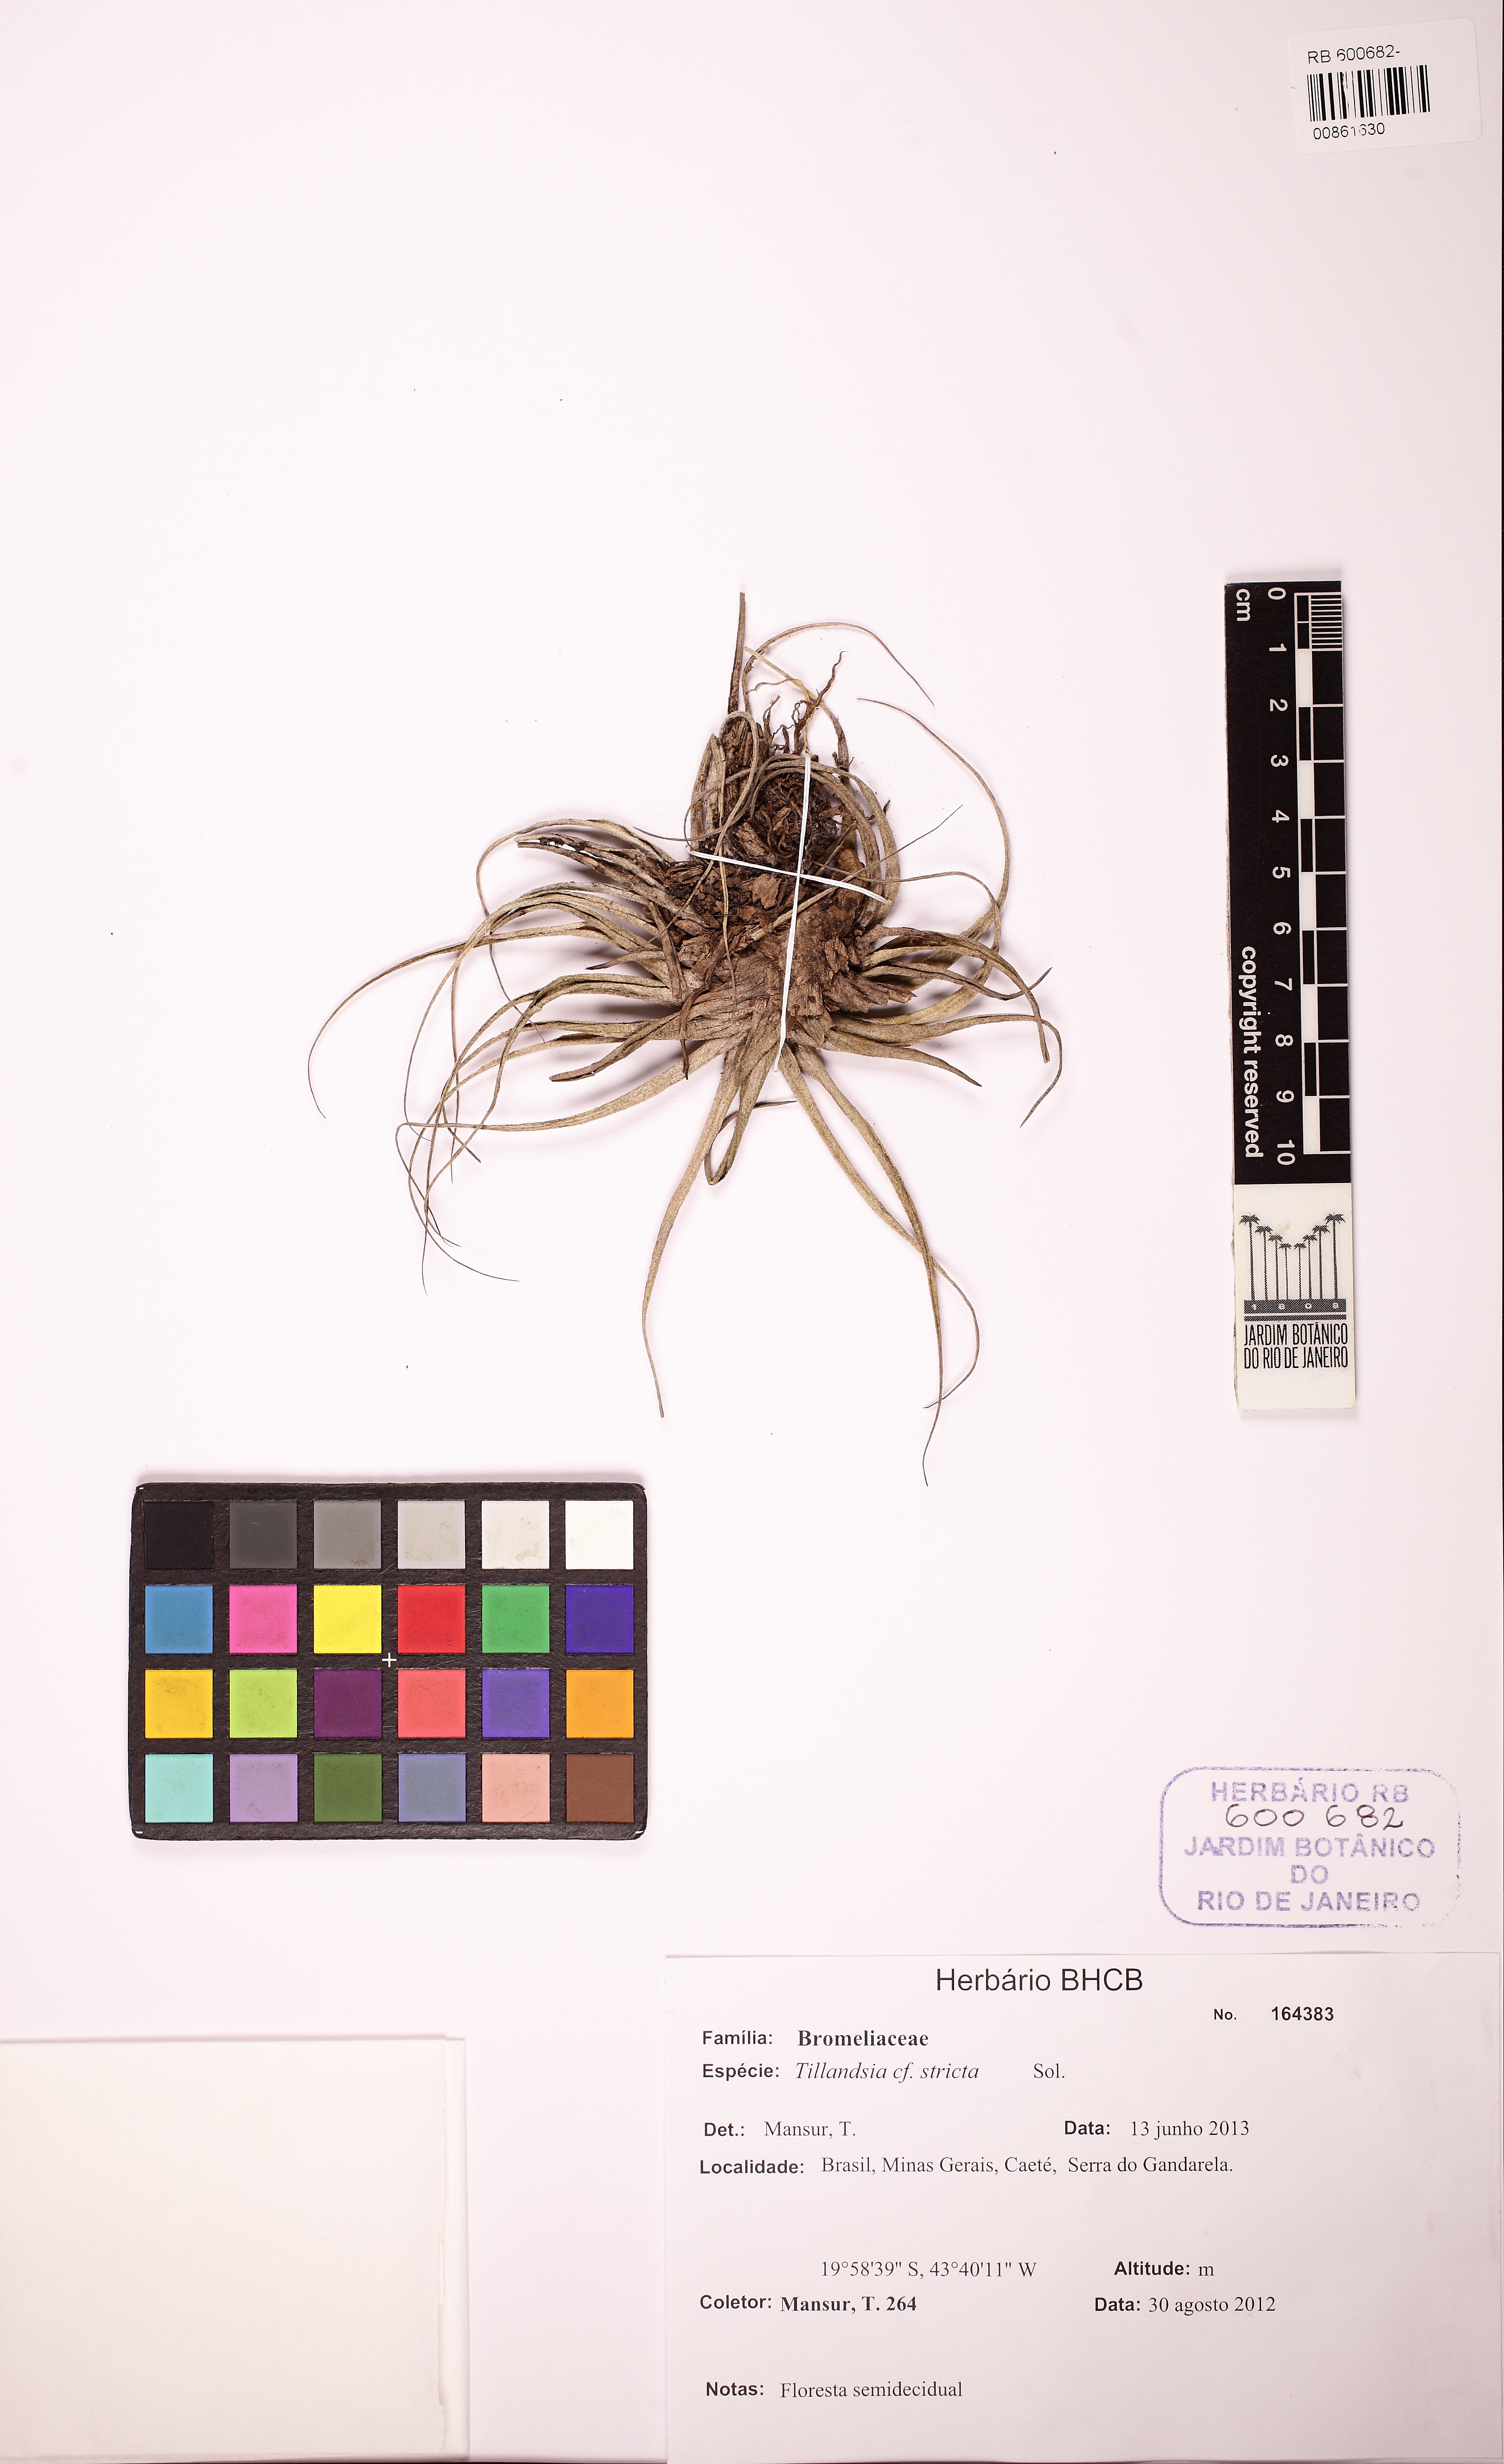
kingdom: Plantae
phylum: Tracheophyta
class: Liliopsida
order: Poales
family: Bromeliaceae
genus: Tillandsia
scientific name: Tillandsia stricta
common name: Airplant
